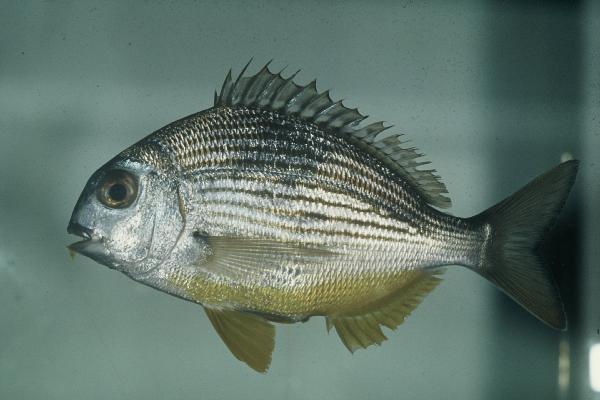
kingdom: Animalia
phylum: Chordata
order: Perciformes
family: Sparidae
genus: Rhabdosargus
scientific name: Rhabdosargus thorpei
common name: Bigeye stumpnose
